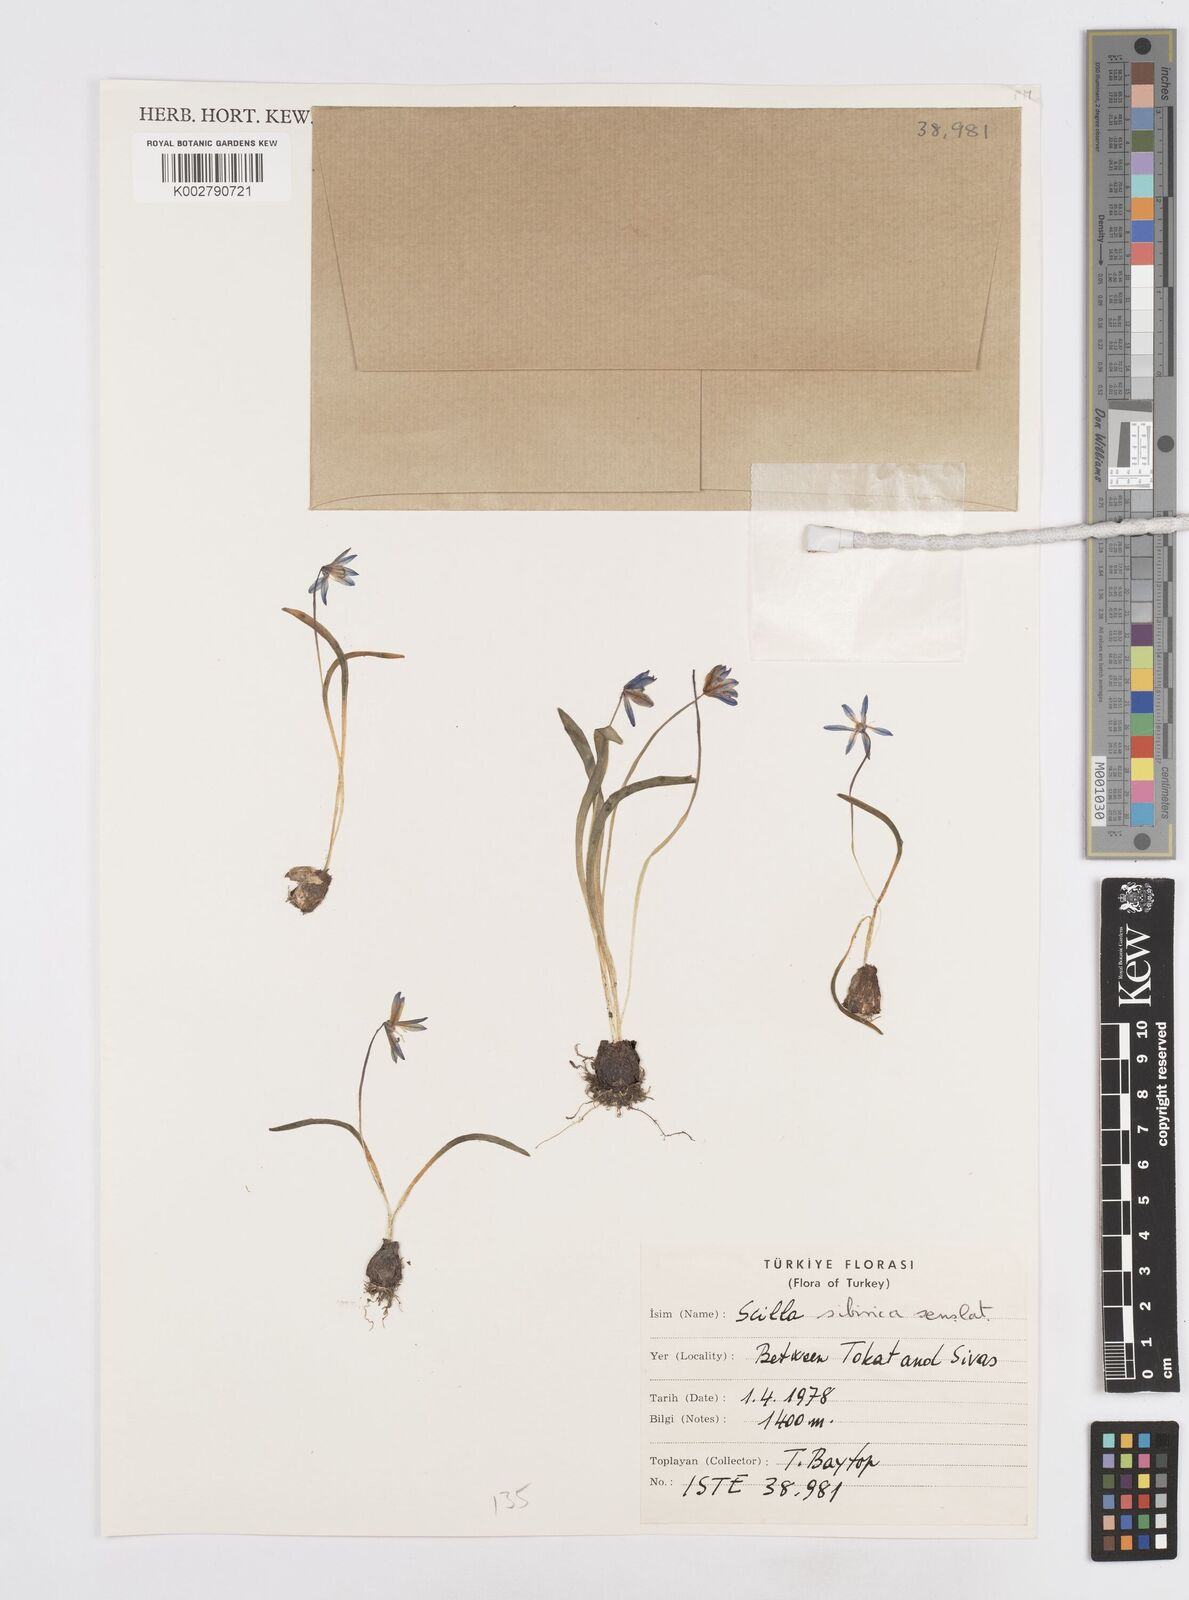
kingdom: Plantae
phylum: Tracheophyta
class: Liliopsida
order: Asparagales
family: Asparagaceae
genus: Scilla
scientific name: Scilla siberica
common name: Siberian squill
